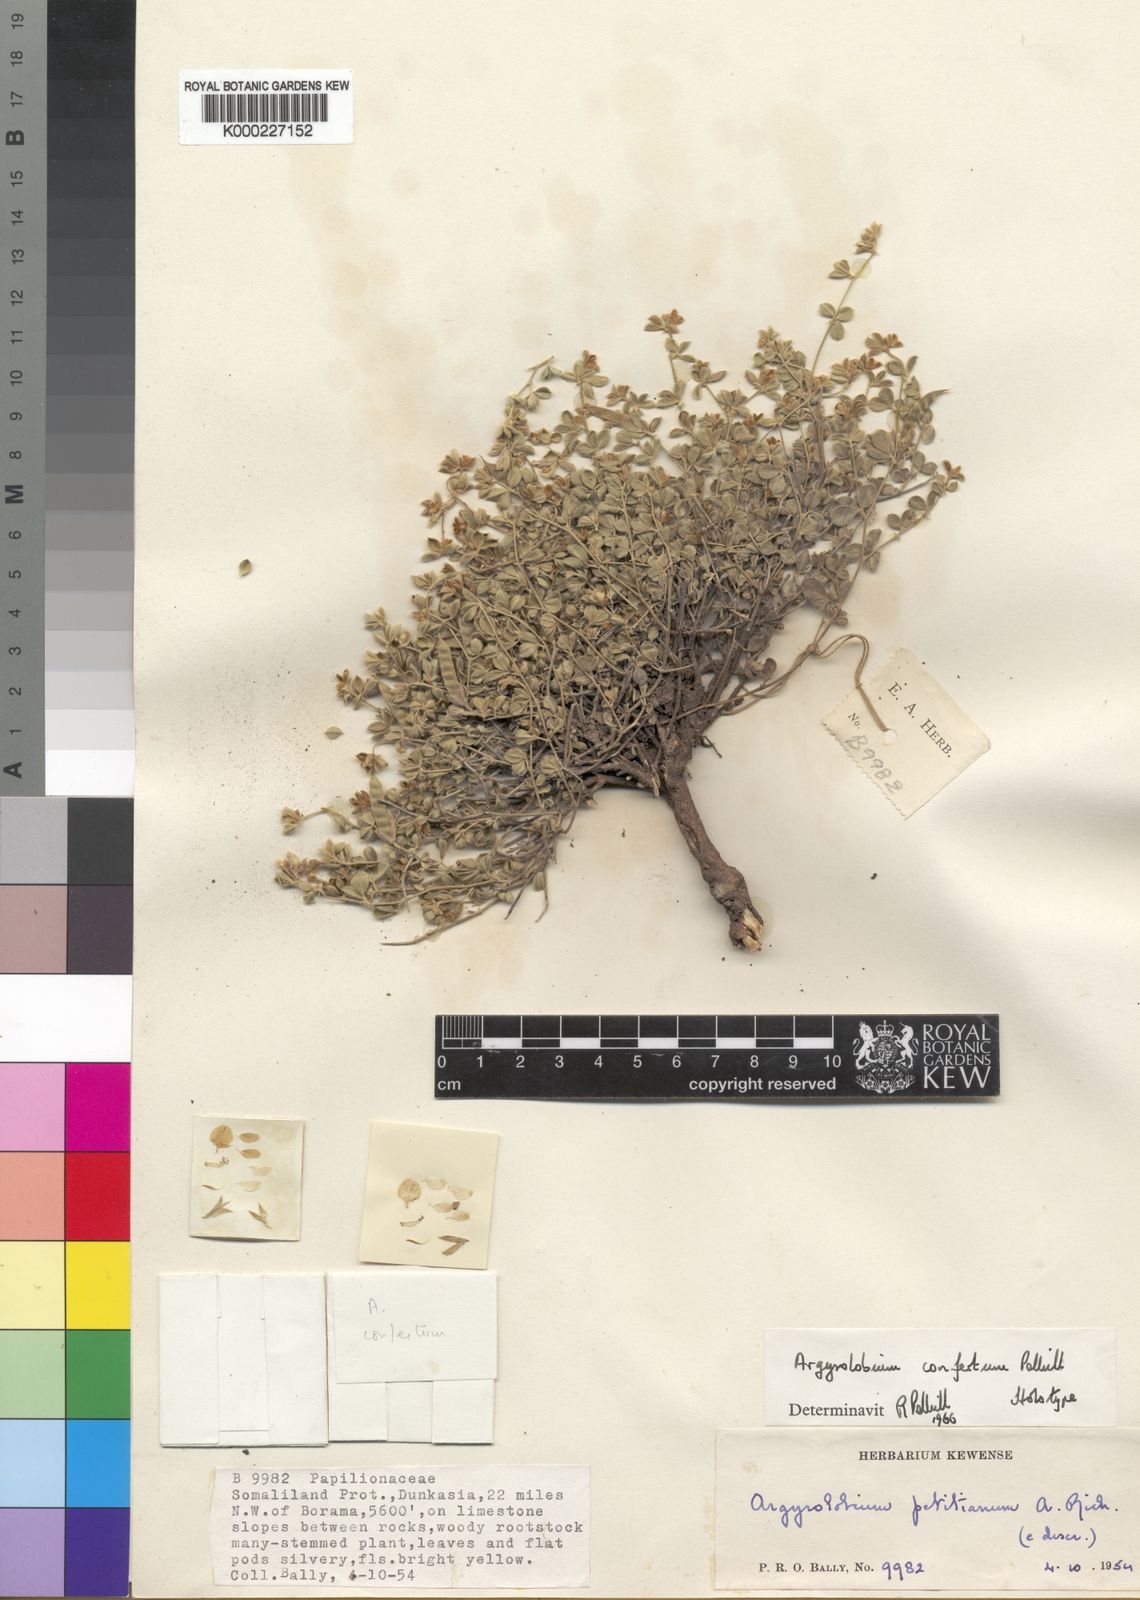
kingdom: Plantae
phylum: Tracheophyta
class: Magnoliopsida
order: Fabales
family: Fabaceae
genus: Argyrolobium
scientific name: Argyrolobium confertum
